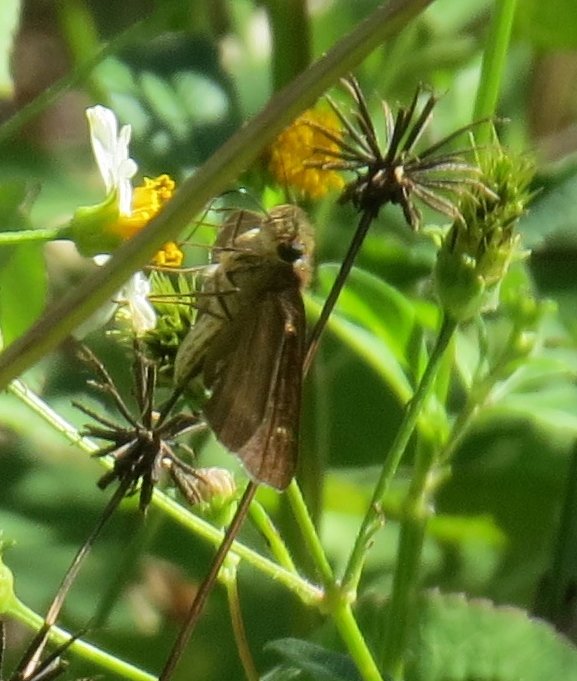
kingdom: Animalia
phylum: Arthropoda
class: Insecta
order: Lepidoptera
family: Hesperiidae
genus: Lerema
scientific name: Lerema accius
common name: Clouded Skipper
